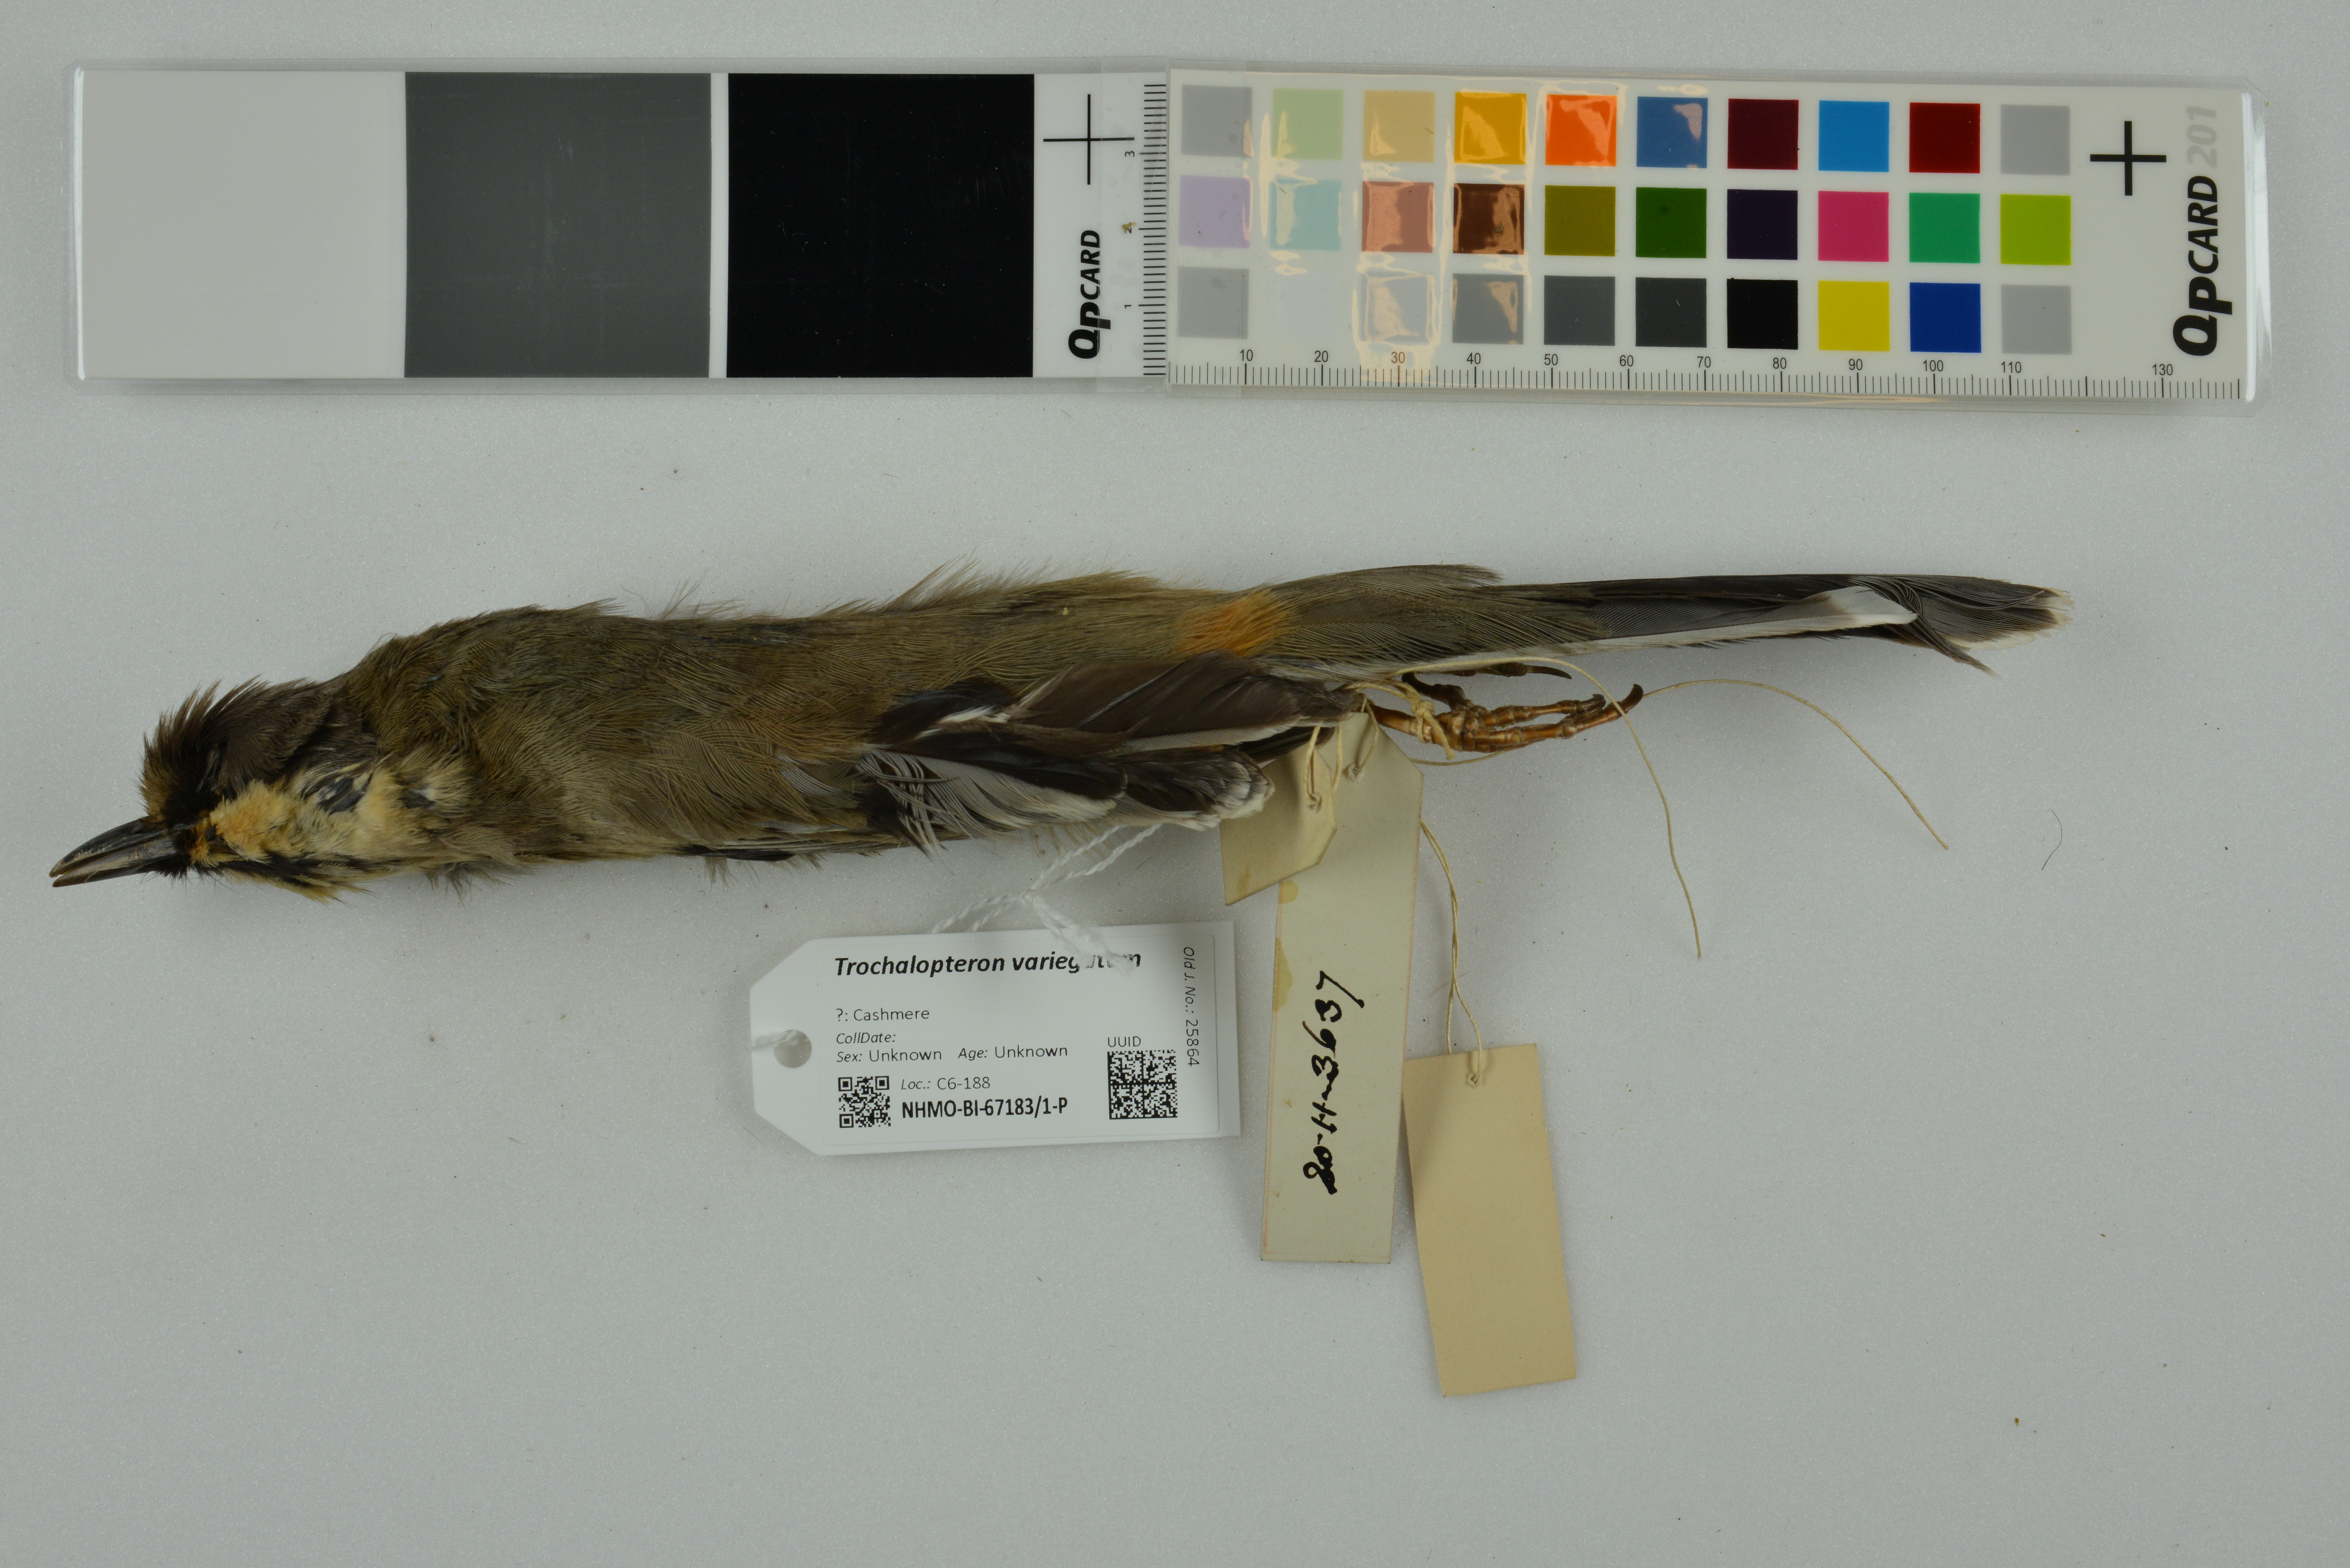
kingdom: Animalia
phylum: Chordata
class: Aves
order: Passeriformes
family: Leiothrichidae
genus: Trochalopteron
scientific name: Trochalopteron variegatum
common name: Variegated laughingthrush
